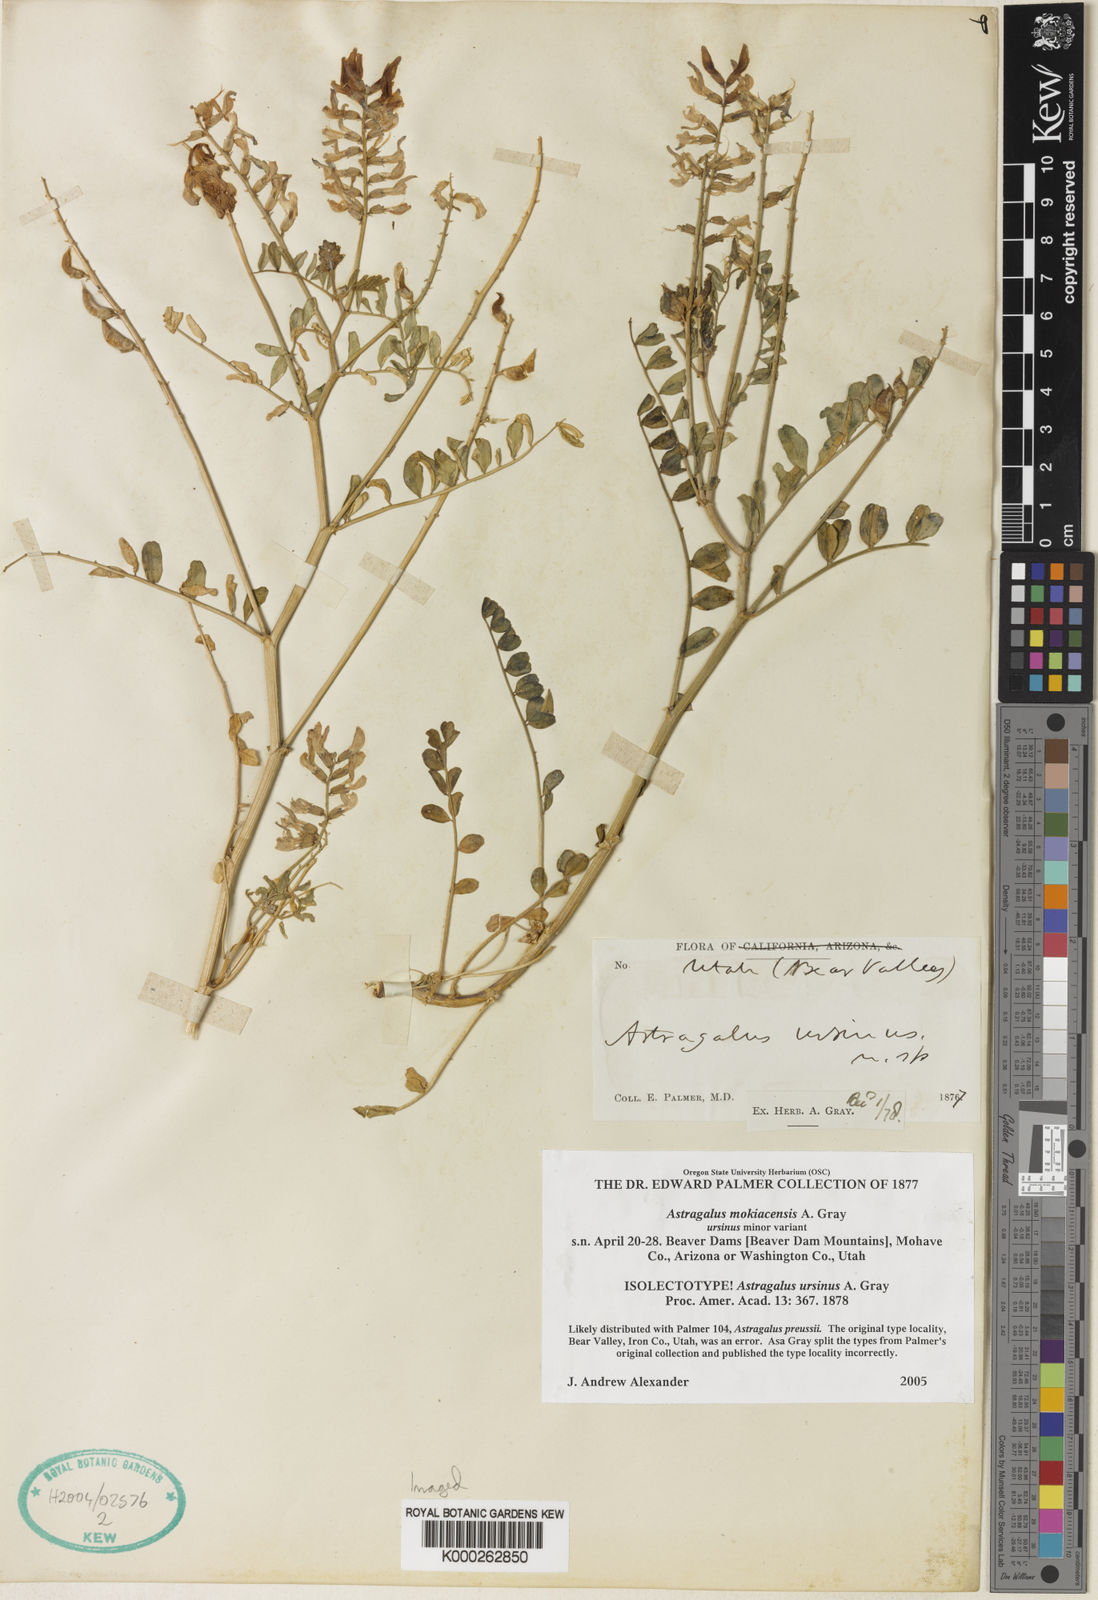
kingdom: Plantae
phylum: Tracheophyta
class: Magnoliopsida
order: Fabales
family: Fabaceae
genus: Astragalus
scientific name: Astragalus mokiacensis
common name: Mokiak milkvetch
